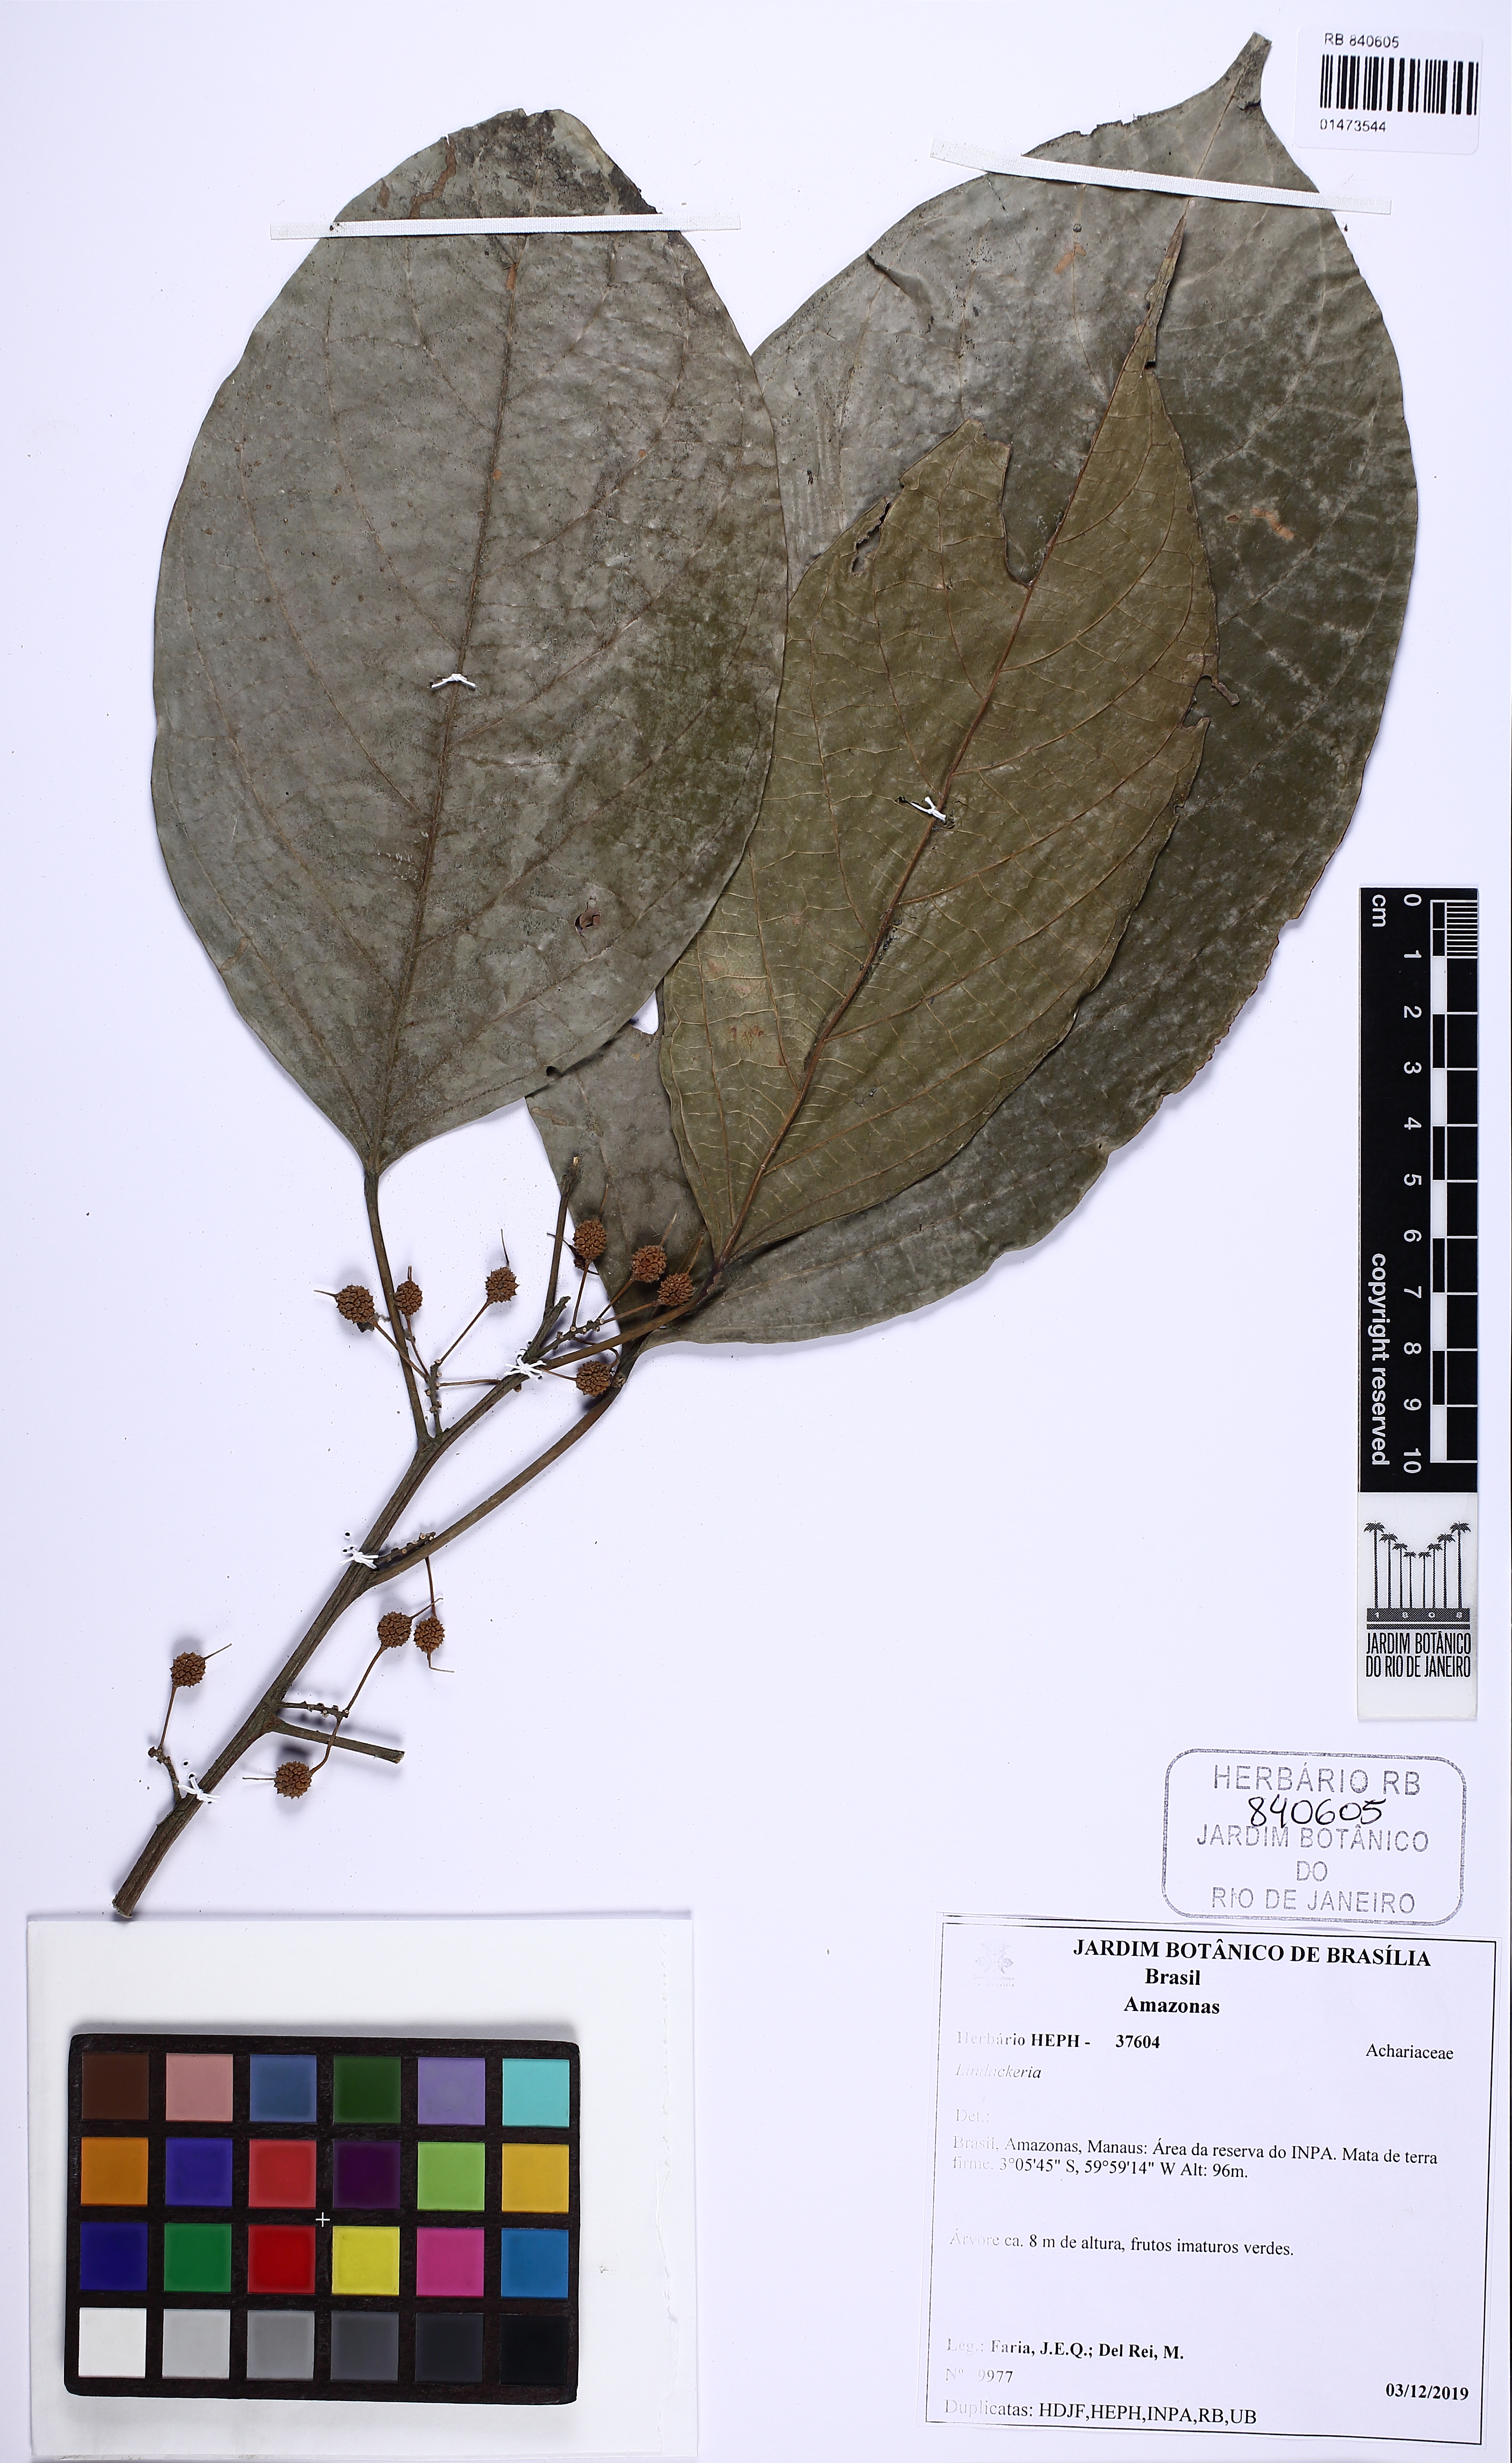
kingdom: Plantae
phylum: Tracheophyta
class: Magnoliopsida
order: Malpighiales
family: Achariaceae
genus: Lindackeria
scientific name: Lindackeria
